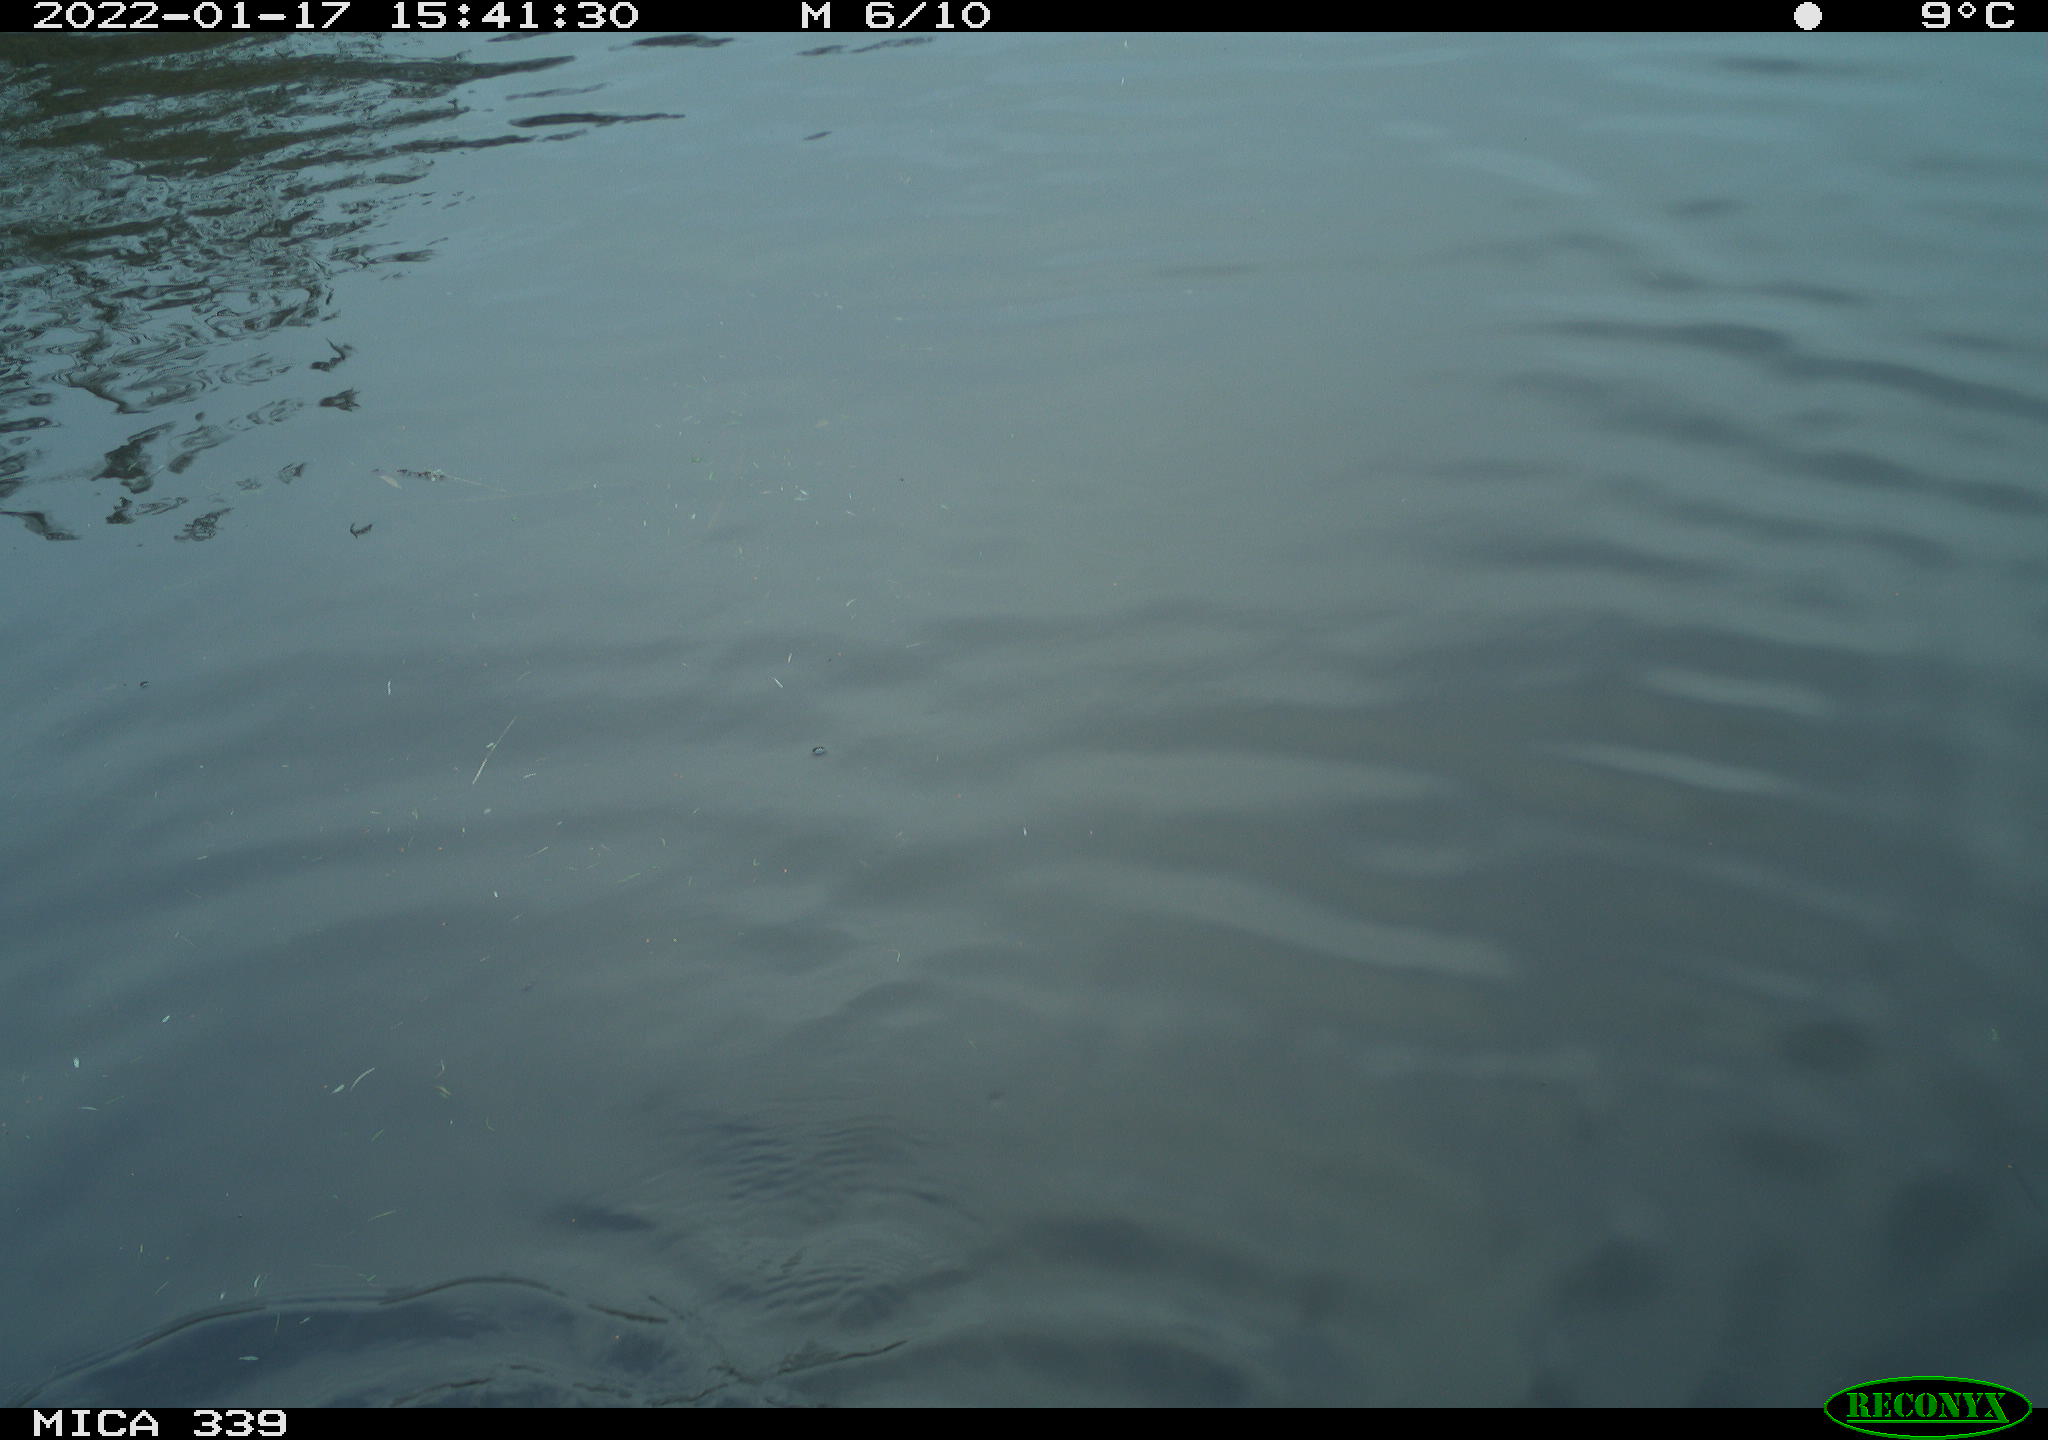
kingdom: Animalia
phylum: Chordata
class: Aves
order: Suliformes
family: Phalacrocoracidae
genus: Phalacrocorax
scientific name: Phalacrocorax carbo
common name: Great cormorant
